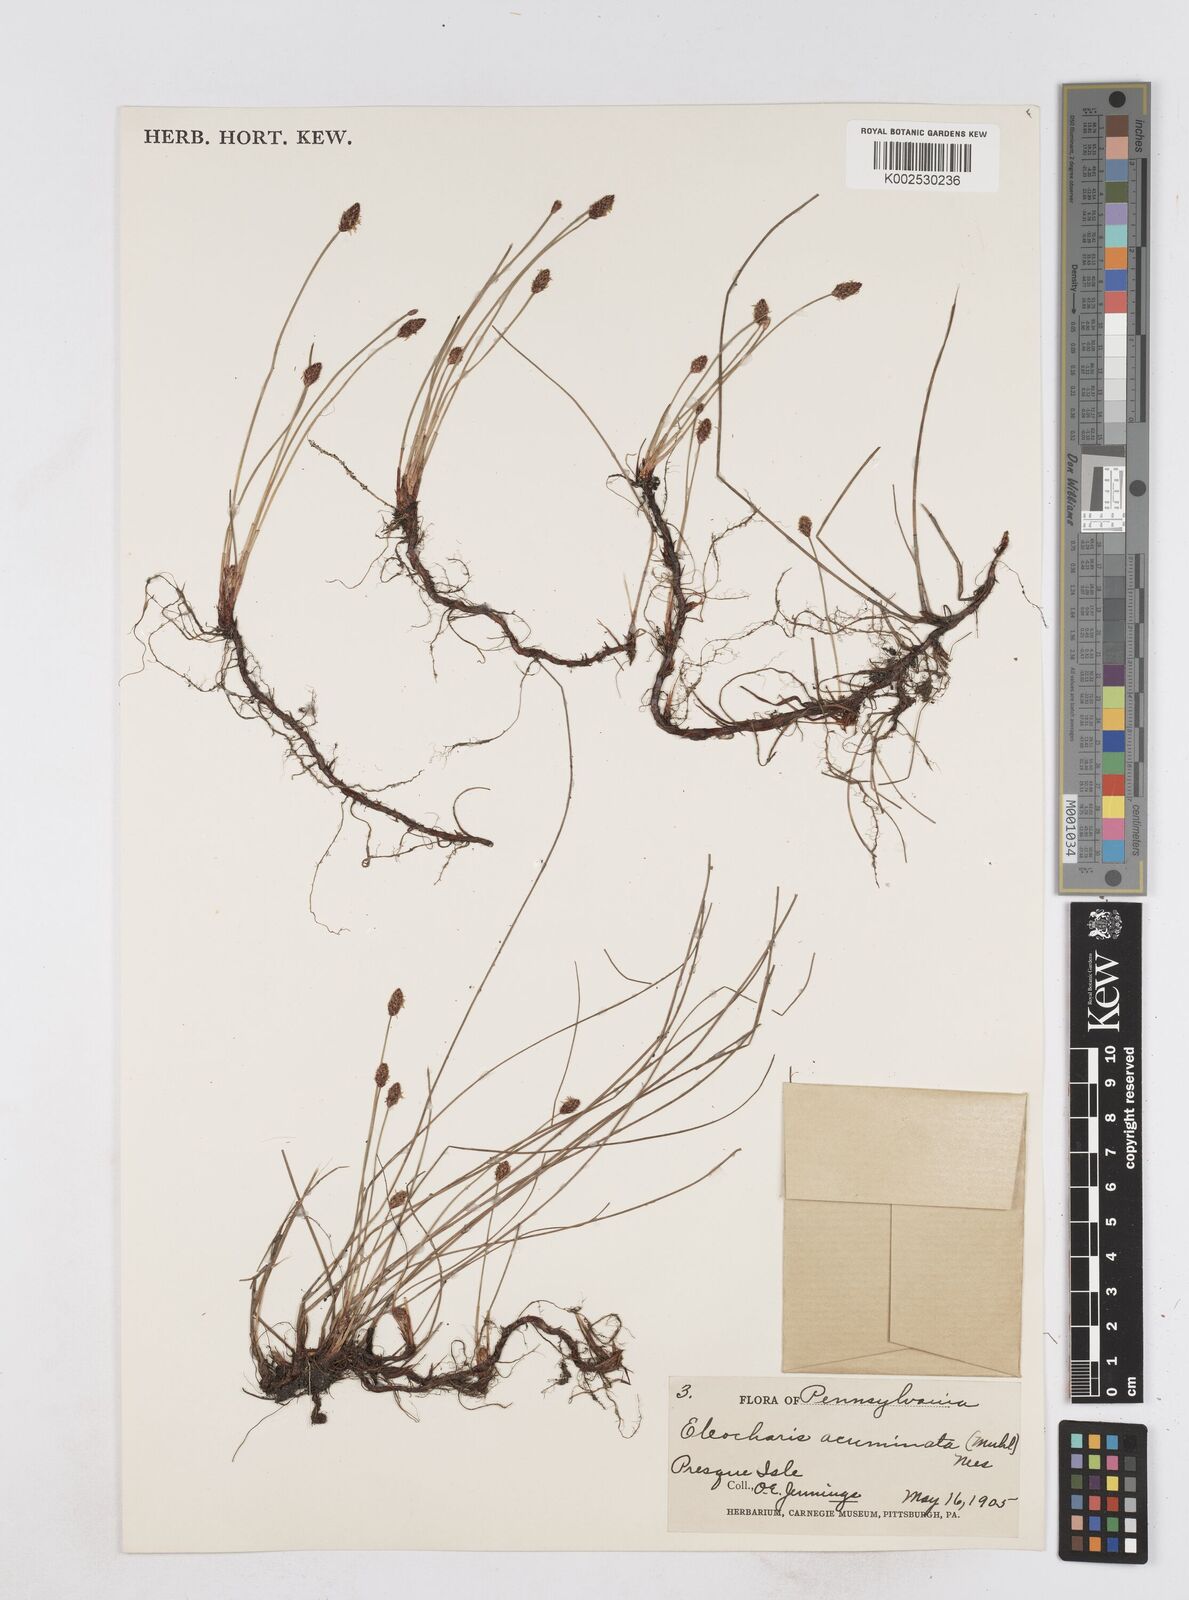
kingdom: Plantae
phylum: Tracheophyta
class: Liliopsida
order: Poales
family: Cyperaceae
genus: Eleocharis
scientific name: Eleocharis compressa
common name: Flat-stem spike-rush
